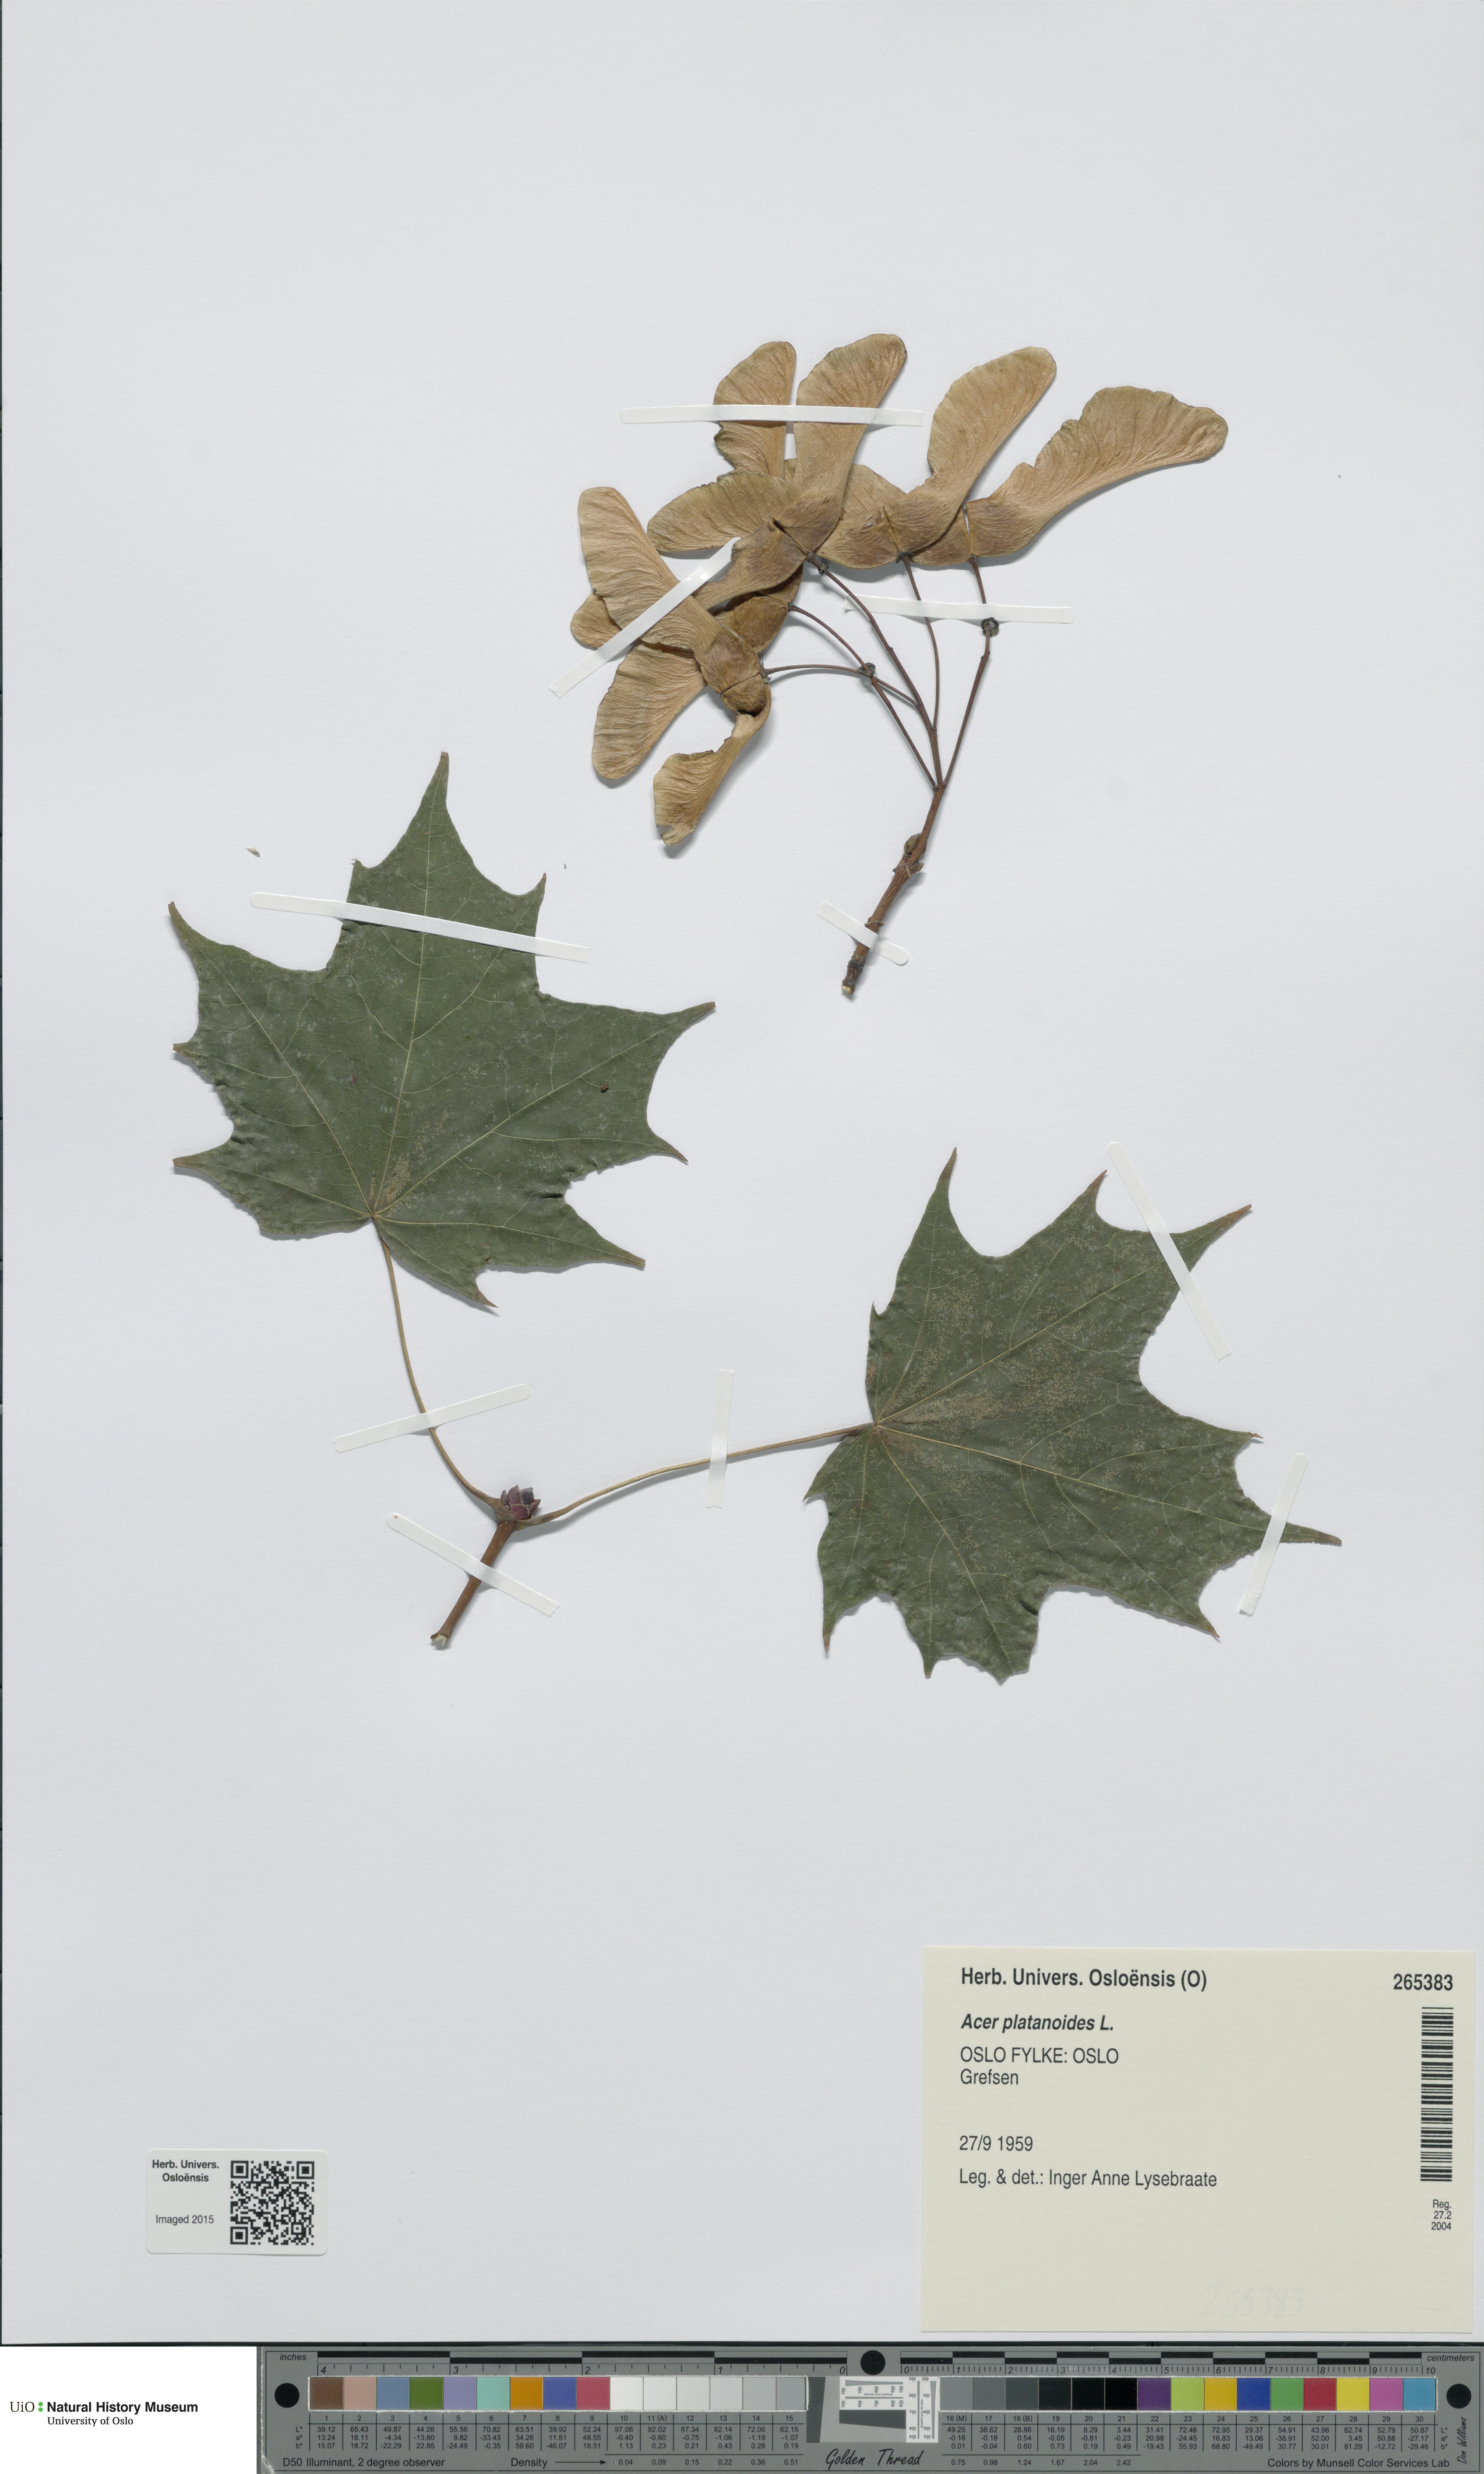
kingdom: Plantae
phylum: Tracheophyta
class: Magnoliopsida
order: Sapindales
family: Sapindaceae
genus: Acer
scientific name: Acer platanoides
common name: Norway maple
